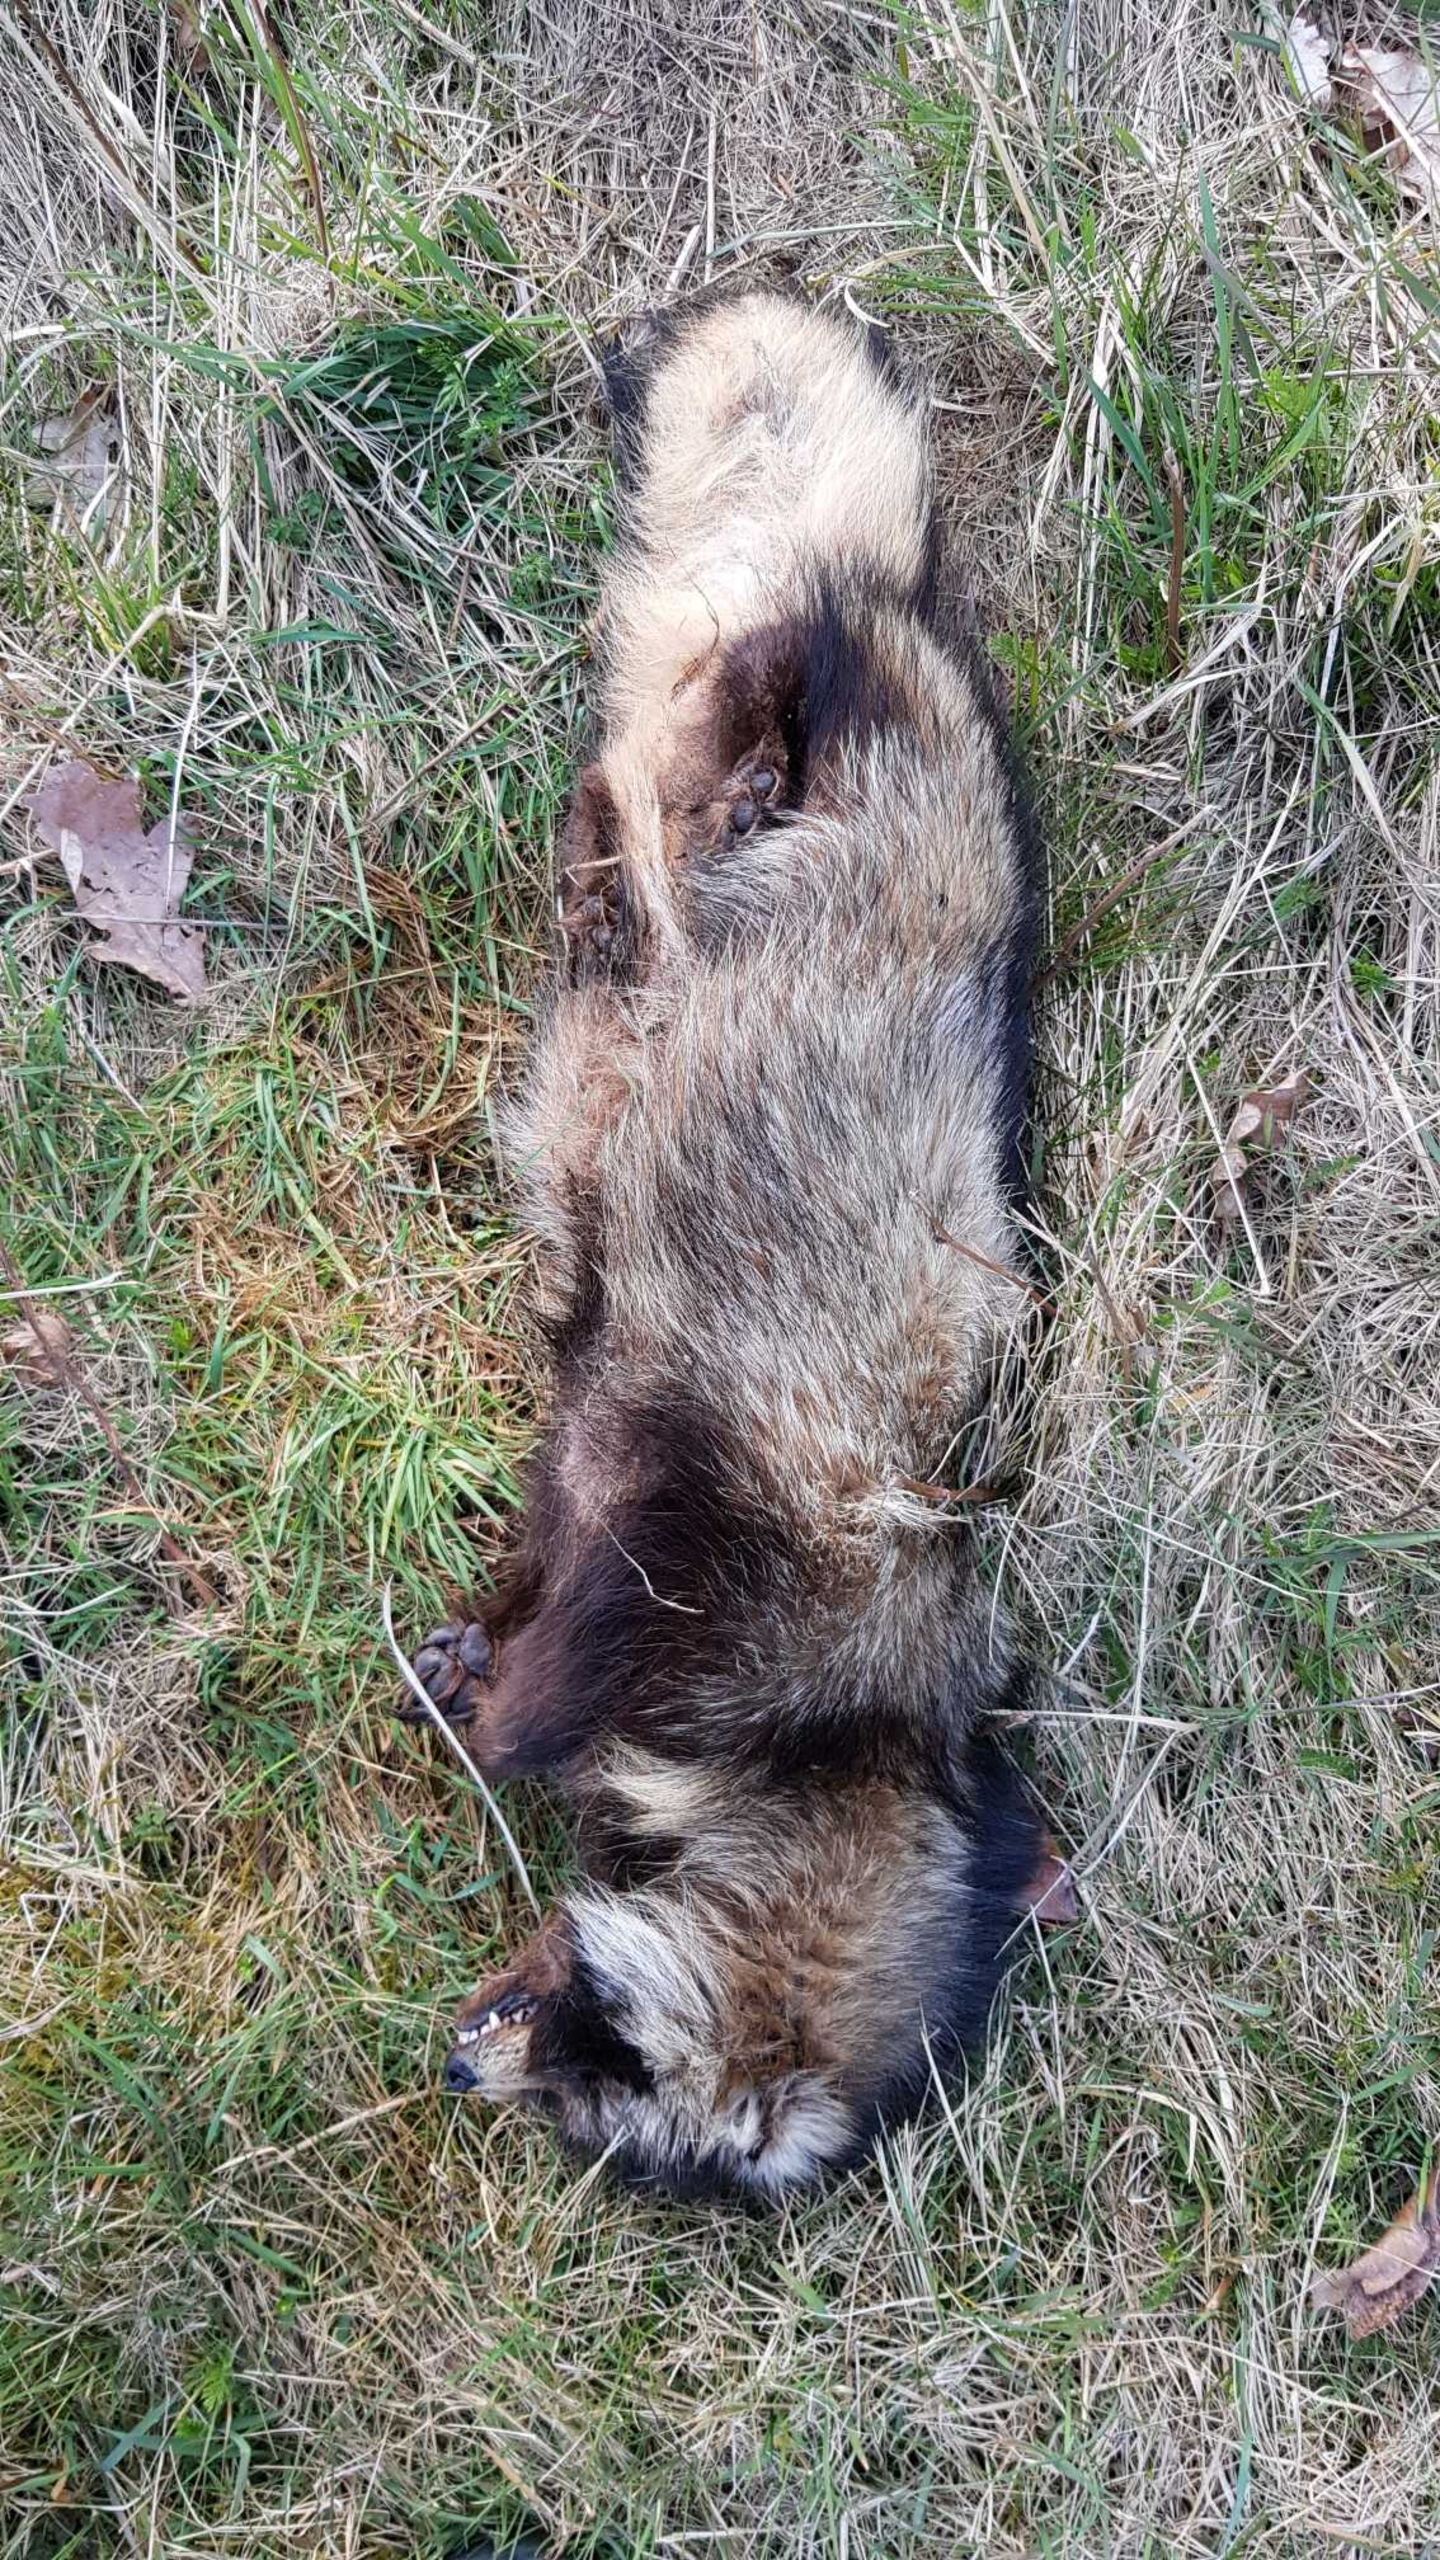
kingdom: Animalia
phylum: Chordata
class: Mammalia
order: Carnivora
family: Canidae
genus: Nyctereutes
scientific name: Nyctereutes procyonoides
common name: Mårhund
